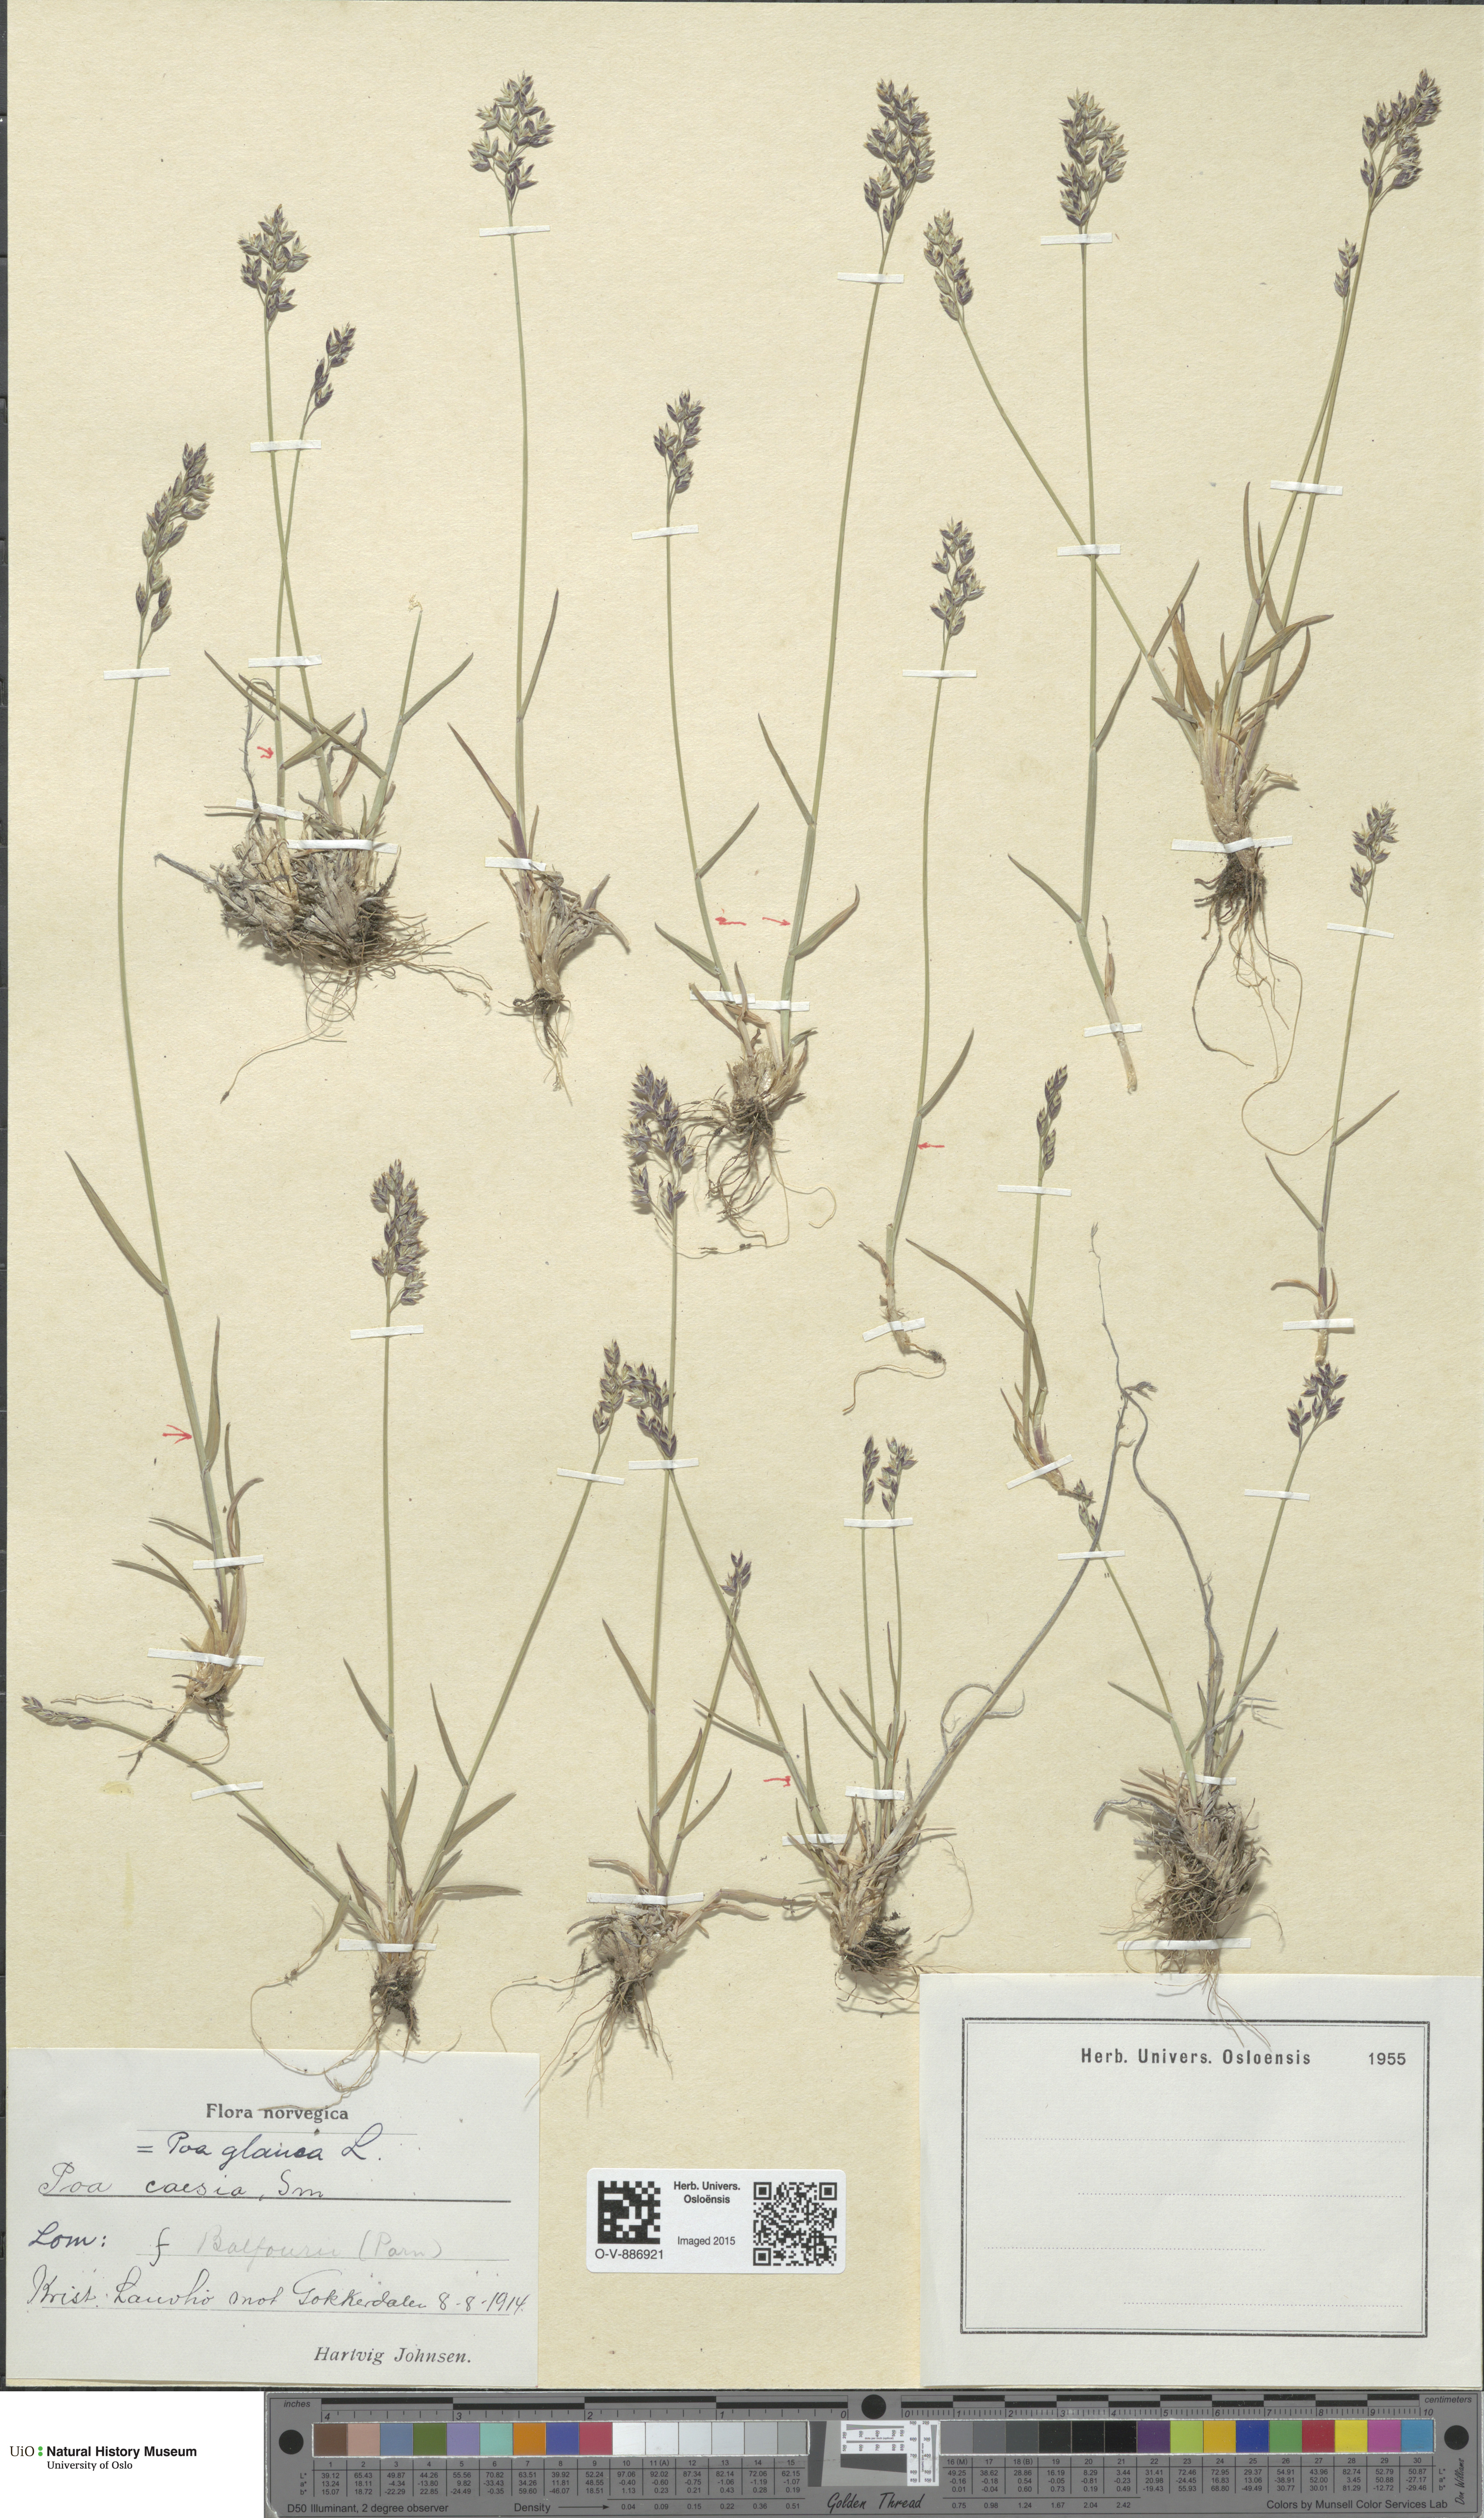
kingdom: Plantae
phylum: Tracheophyta
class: Liliopsida
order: Poales
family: Poaceae
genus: Poa
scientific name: Poa glauca
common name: Glaucous bluegrass
